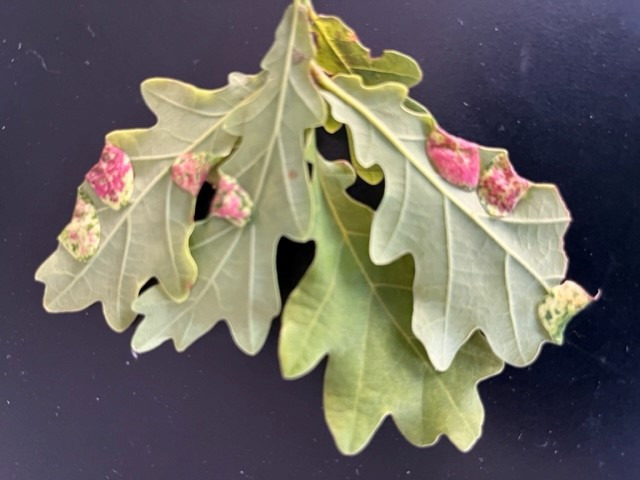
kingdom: Animalia
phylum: Arthropoda
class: Insecta
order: Diptera
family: Cecidomyiidae
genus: Macrodiplosis
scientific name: Macrodiplosis pustularis
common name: Marmorgalmyg
